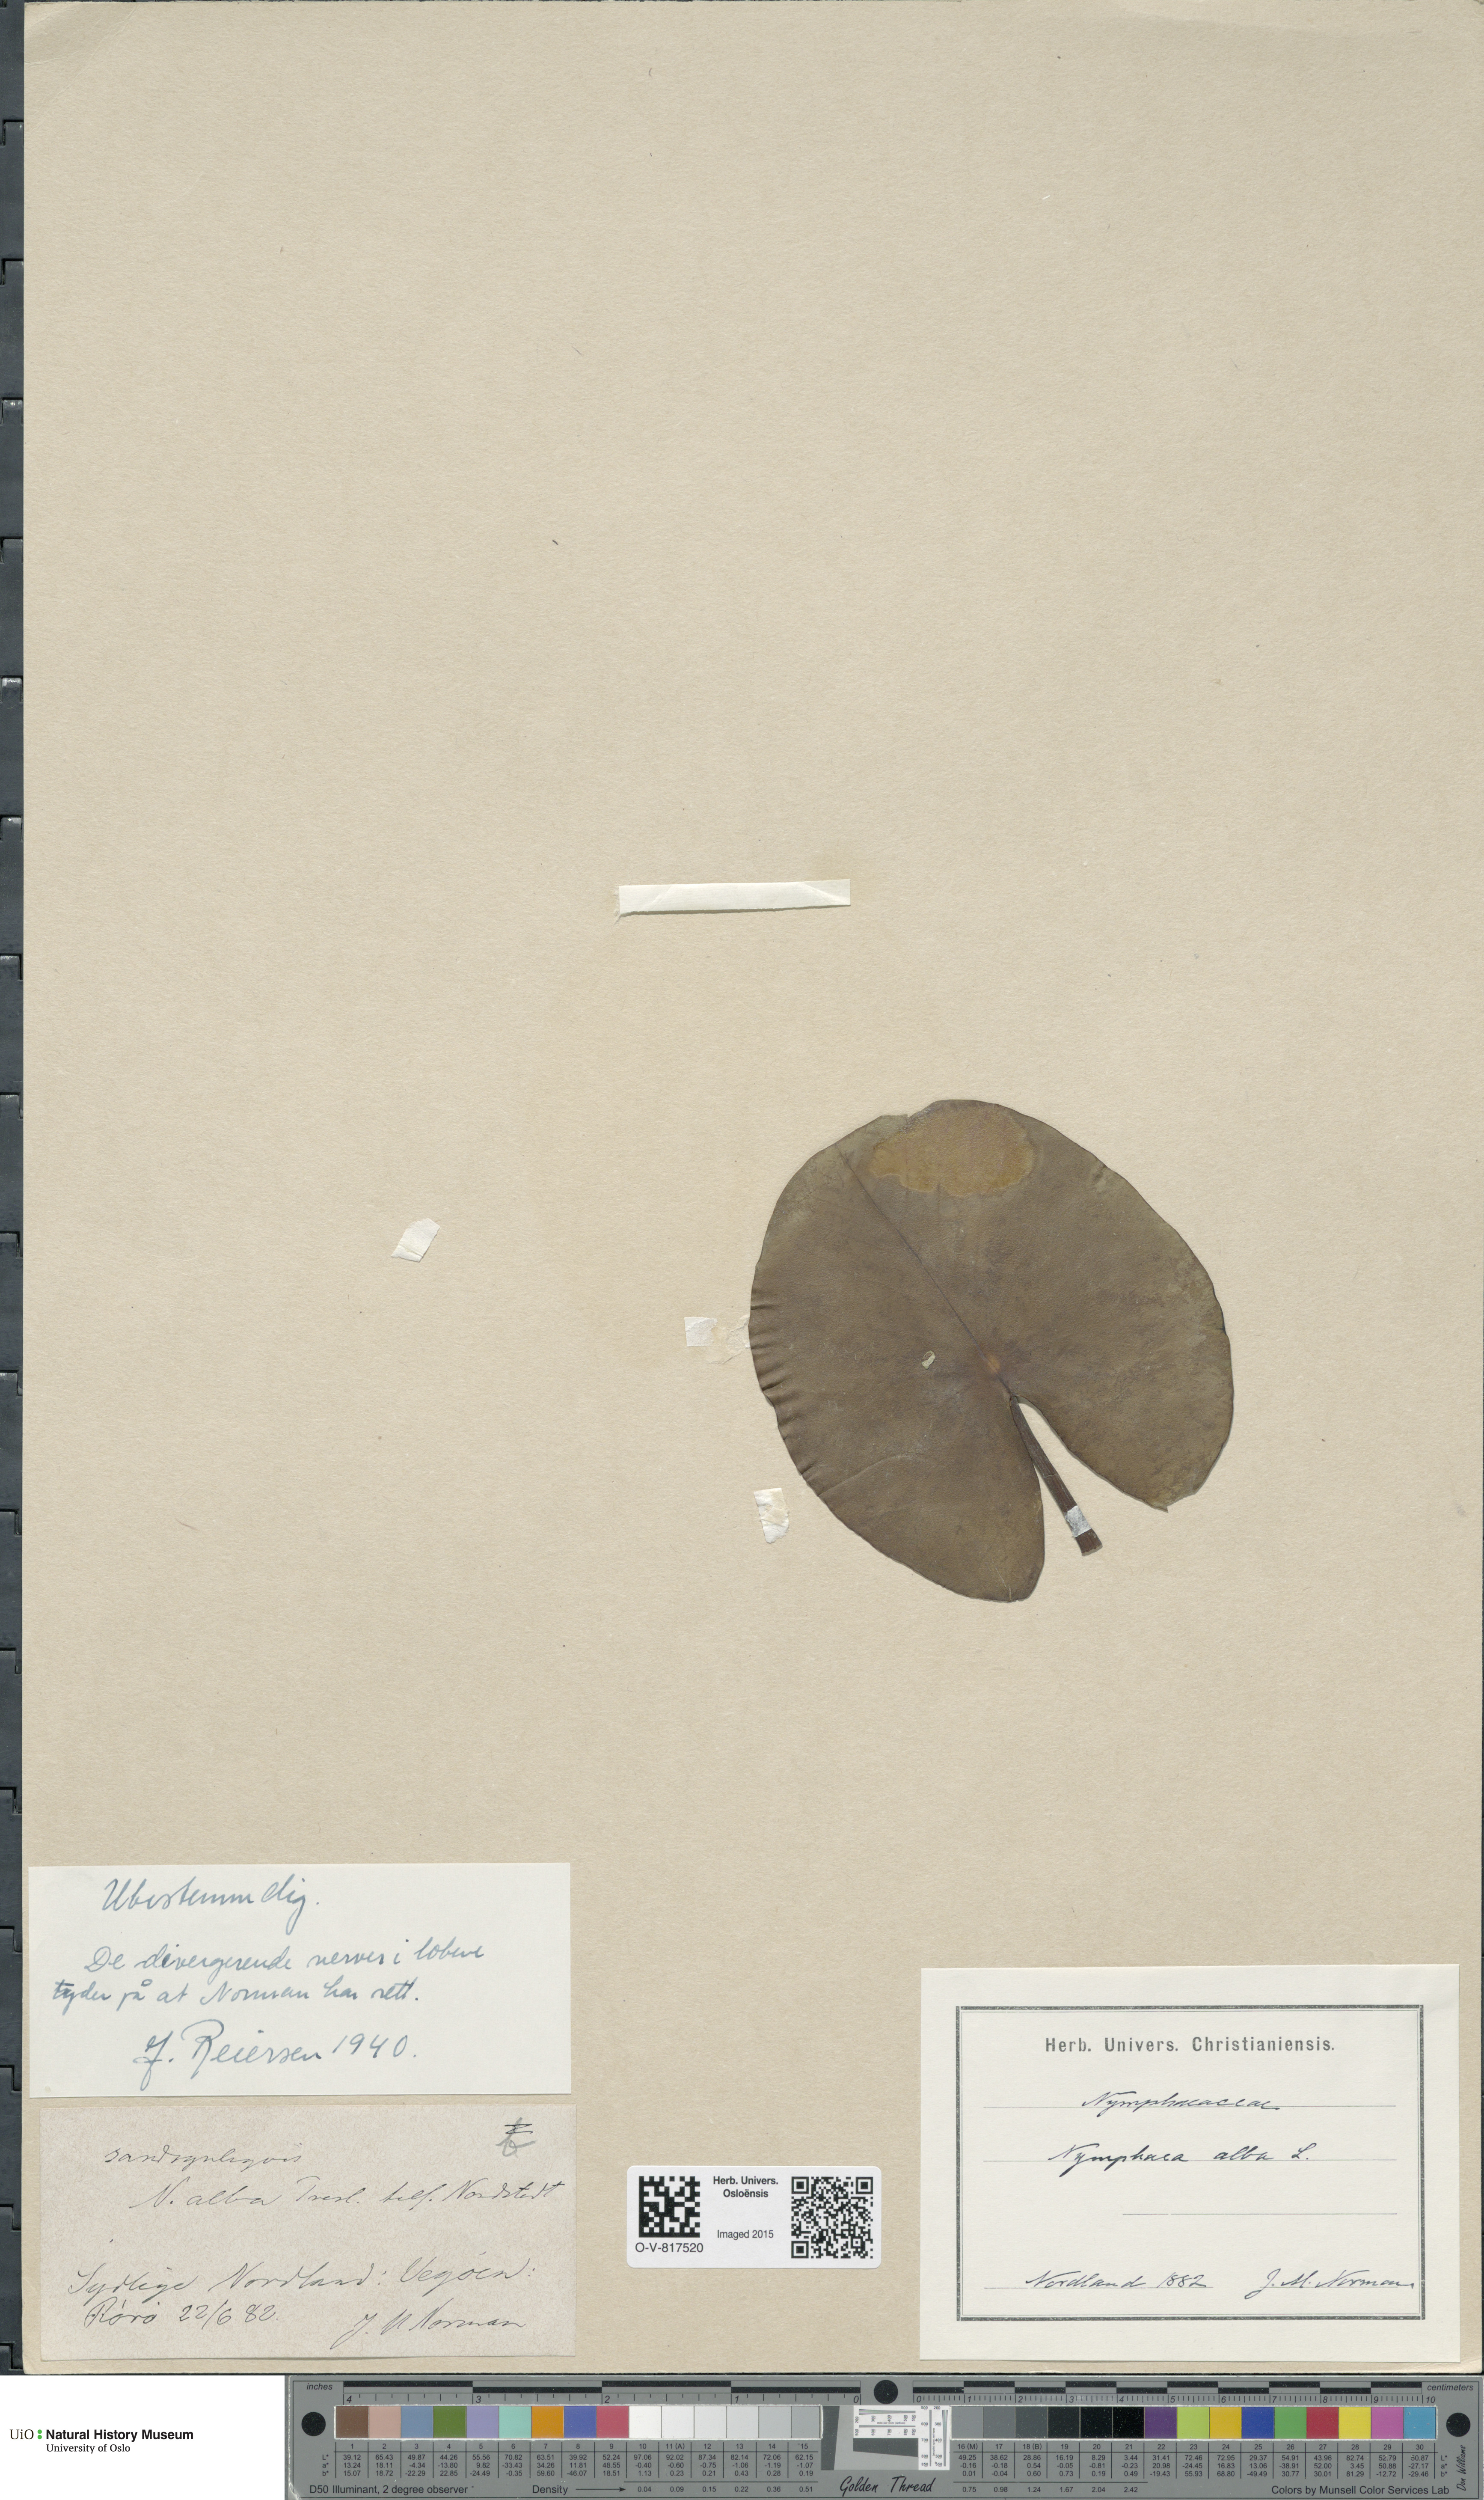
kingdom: Plantae
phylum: Tracheophyta
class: Magnoliopsida
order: Nymphaeales
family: Nymphaeaceae
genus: Nymphaea
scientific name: Nymphaea alba
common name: White water-lily
